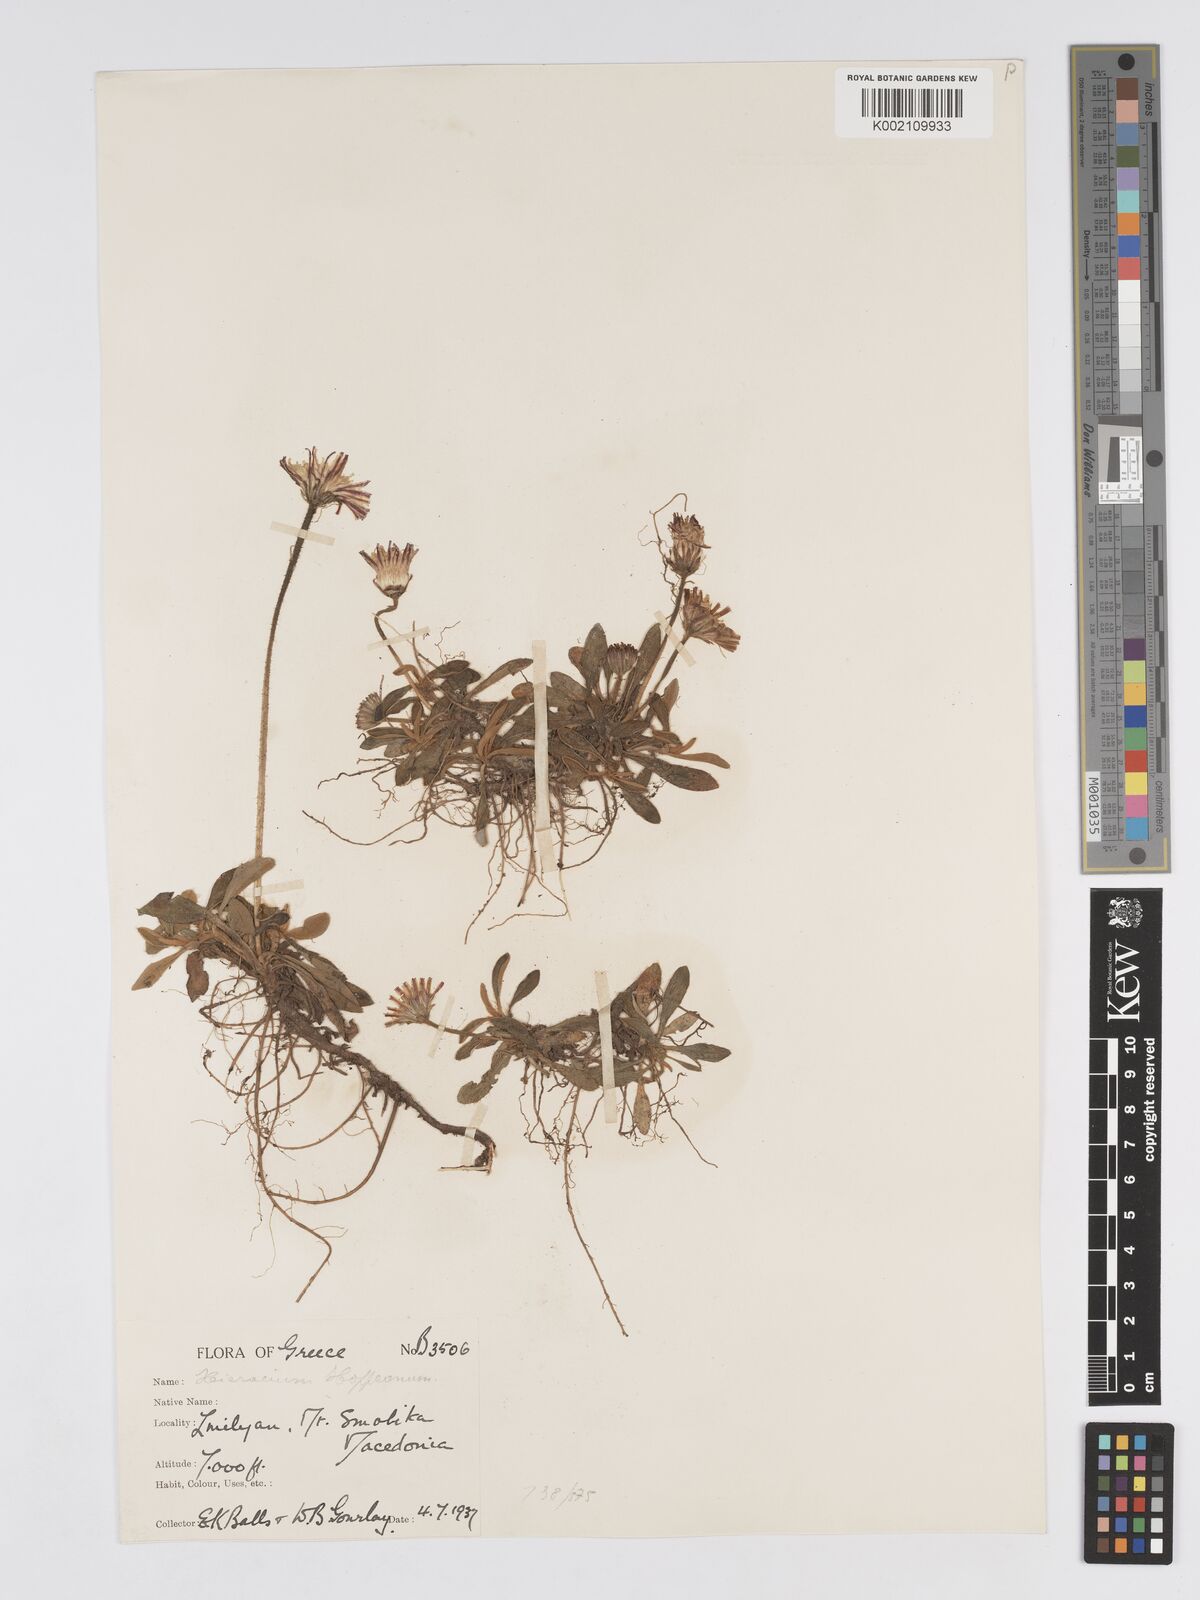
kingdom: Plantae
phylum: Tracheophyta
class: Magnoliopsida
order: Asterales
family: Asteraceae
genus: Pilosella
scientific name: Pilosella hoppeana
